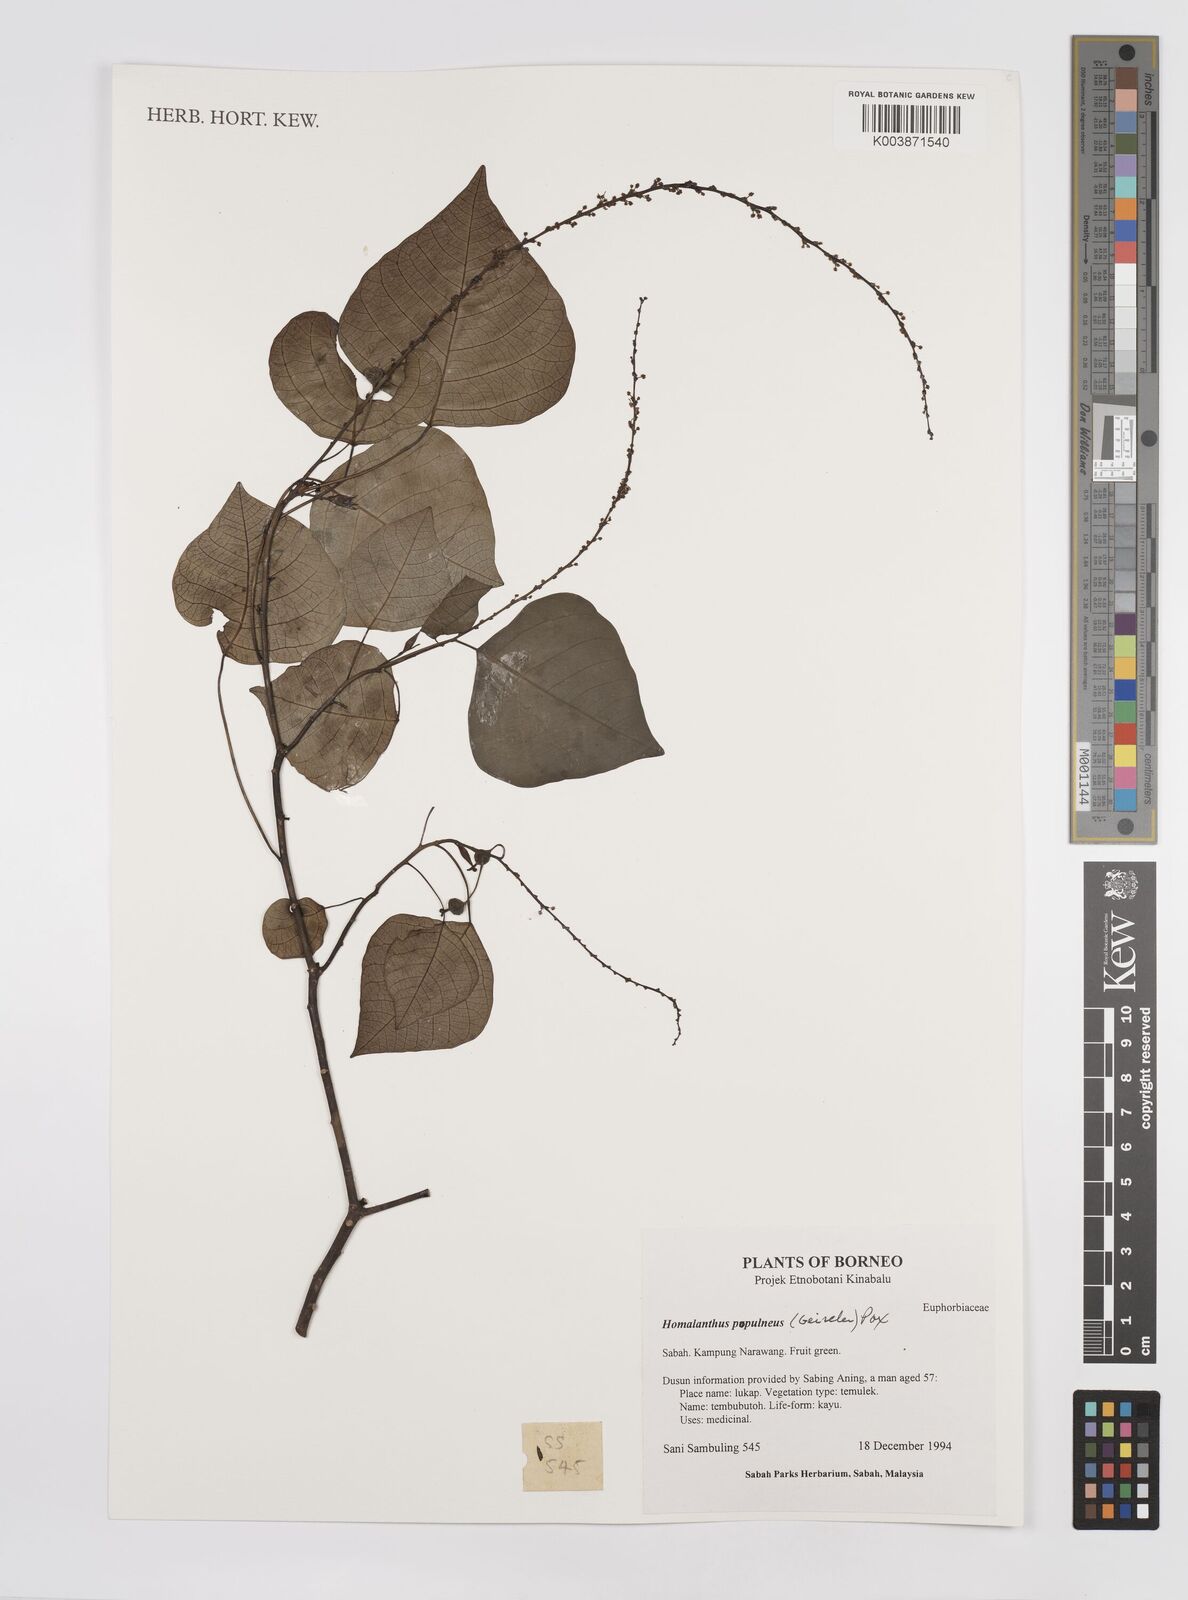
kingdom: Plantae
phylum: Tracheophyta
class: Magnoliopsida
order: Malpighiales
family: Euphorbiaceae
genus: Homalanthus
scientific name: Homalanthus populneus
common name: Spurge
